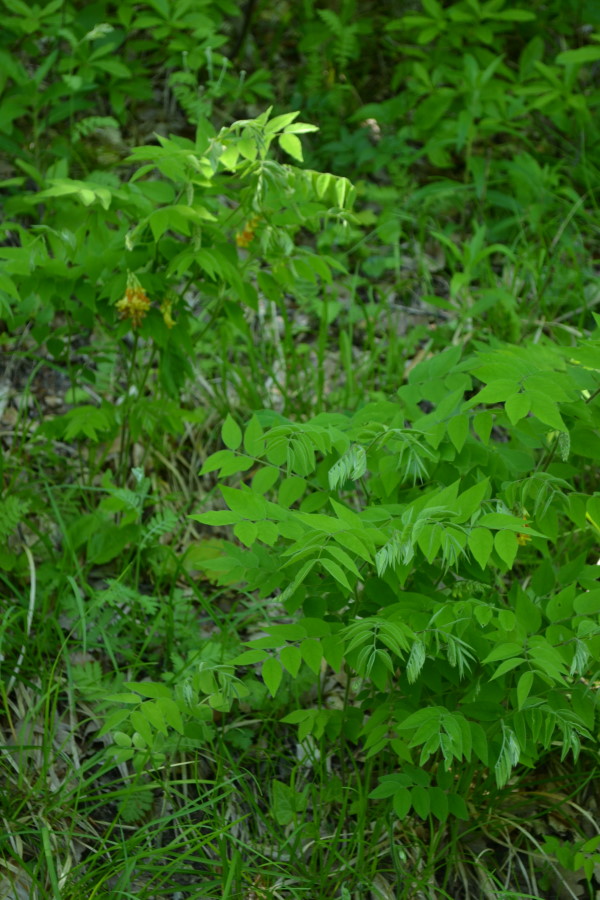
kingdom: Plantae
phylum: Tracheophyta
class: Magnoliopsida
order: Fabales
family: Fabaceae
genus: Lathyrus
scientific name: Lathyrus aureus
